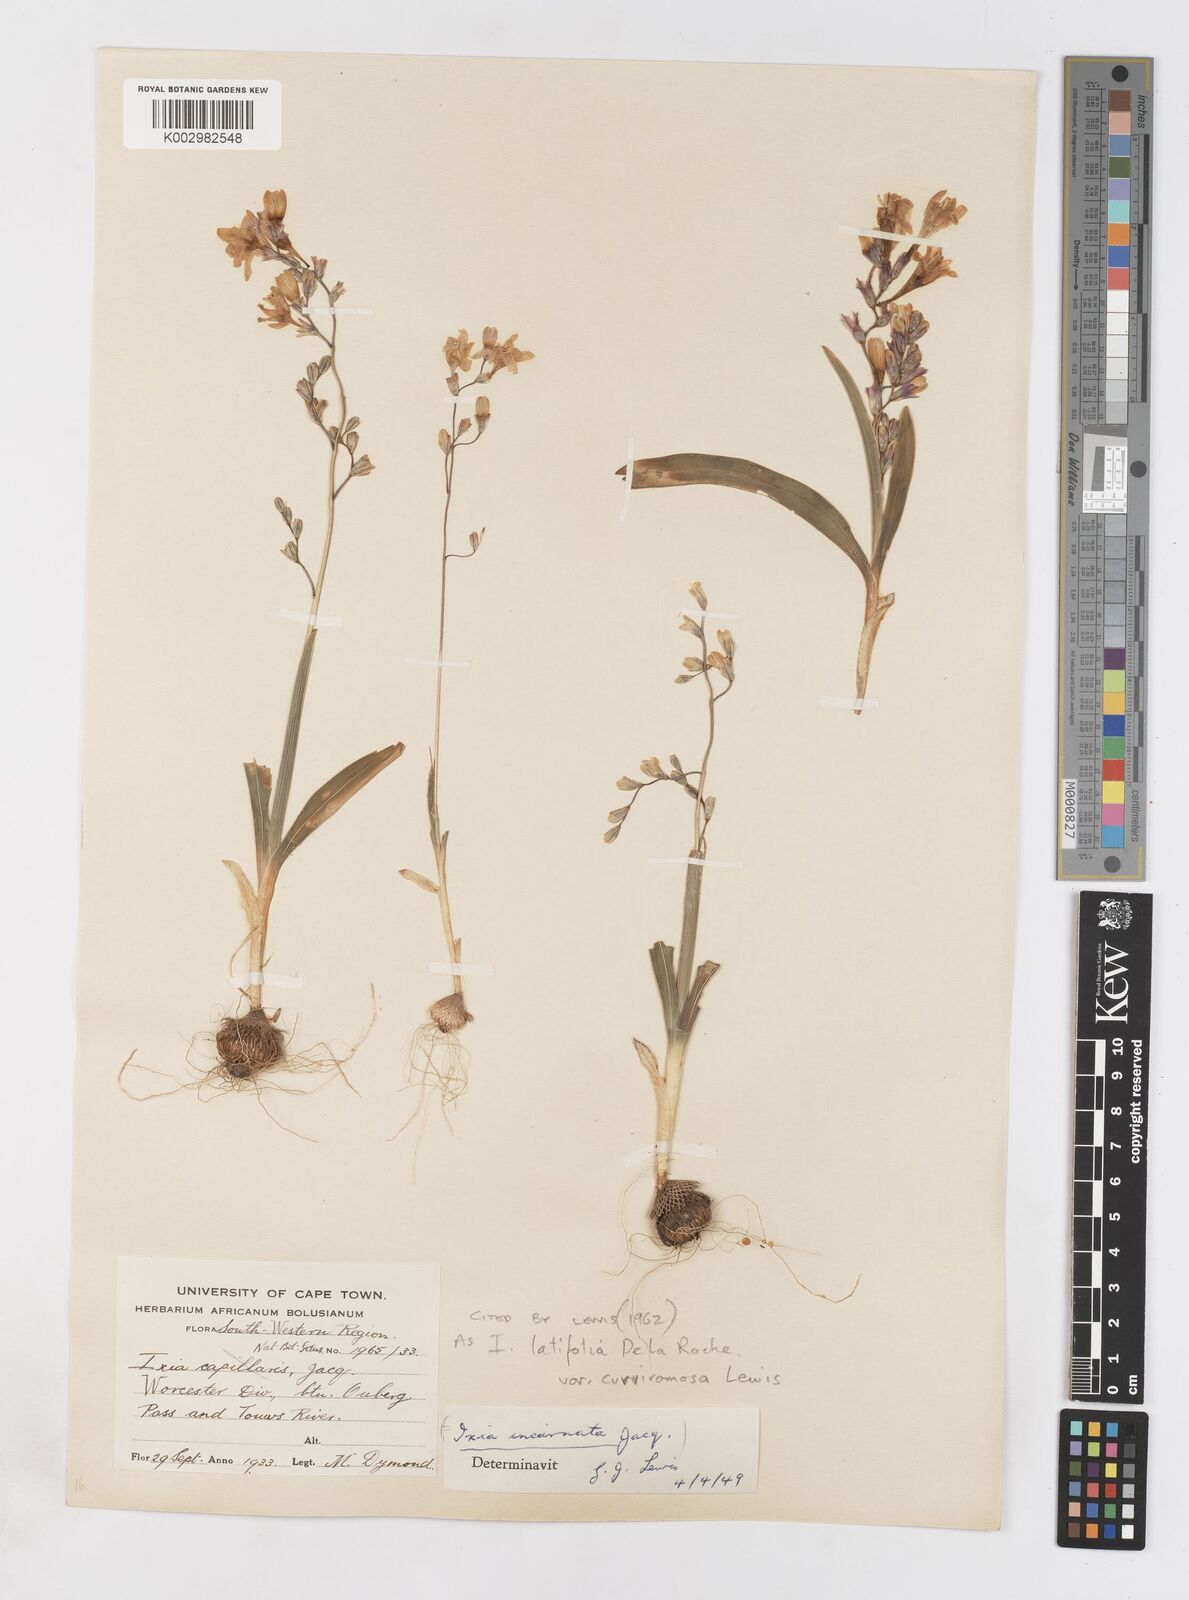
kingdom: Plantae
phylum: Tracheophyta
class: Liliopsida
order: Asparagales
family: Iridaceae
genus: Ixia
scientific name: Ixia latifolia
